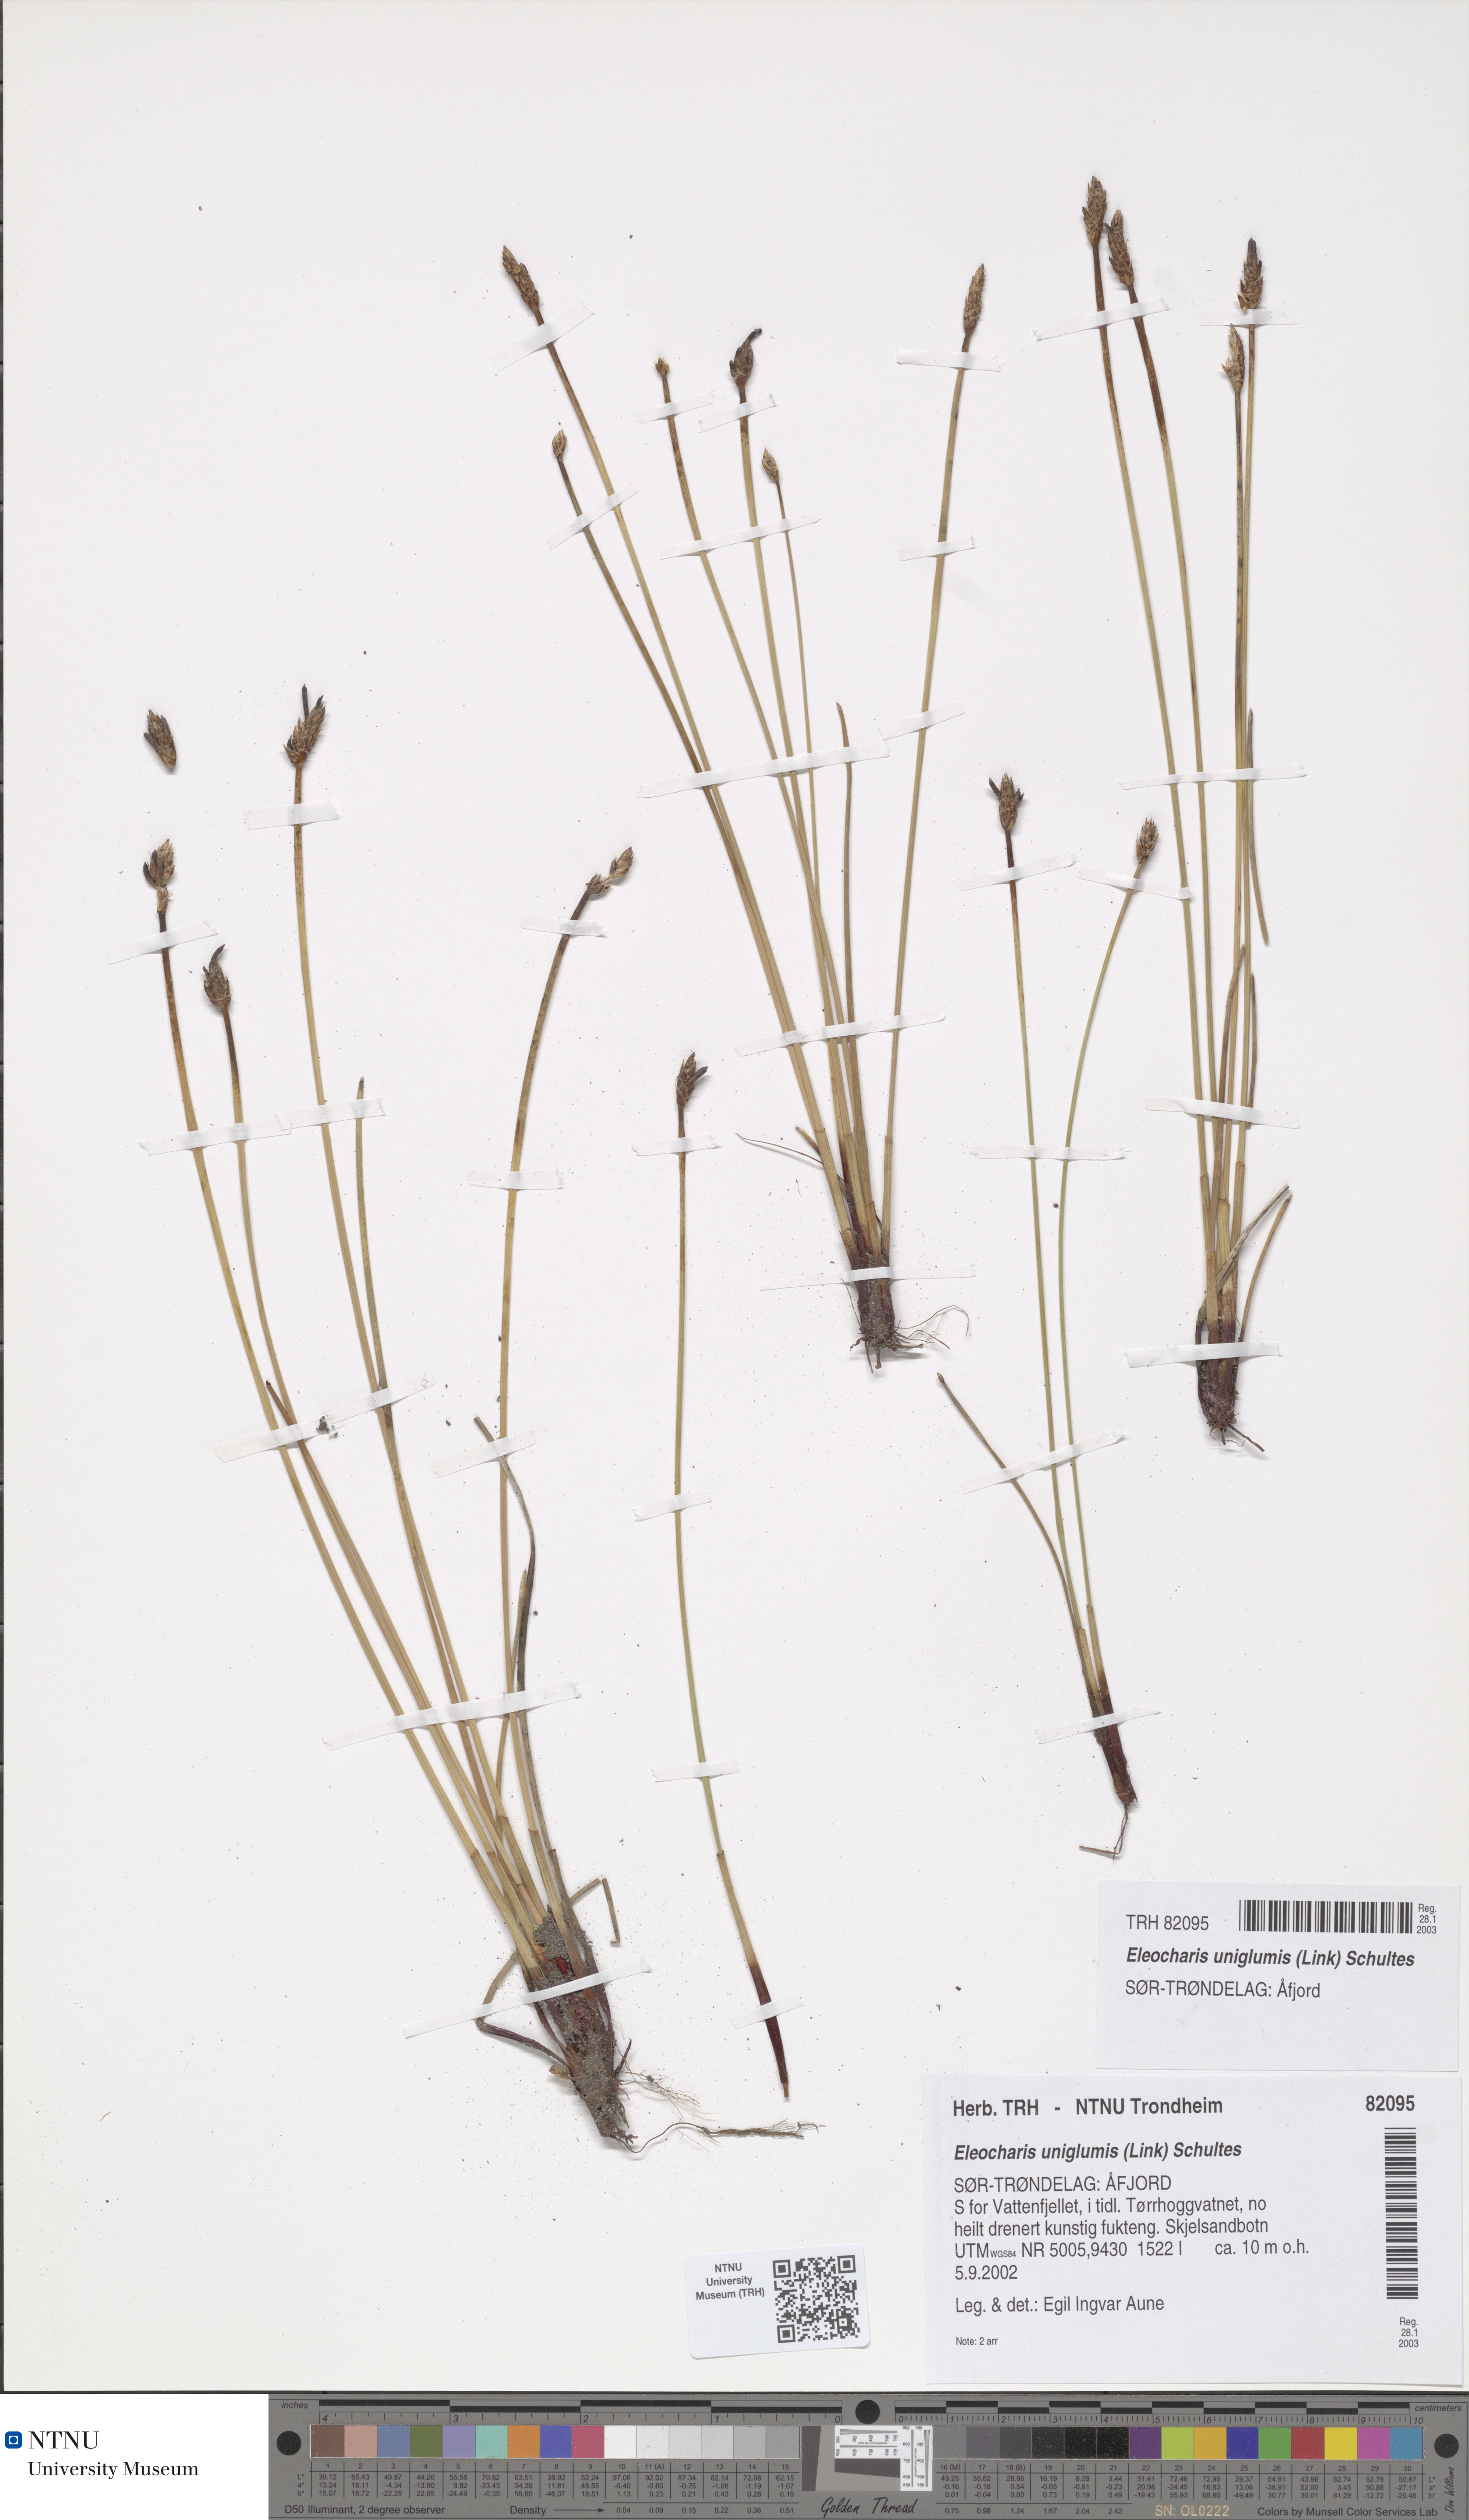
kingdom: Plantae
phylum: Tracheophyta
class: Liliopsida
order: Poales
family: Cyperaceae
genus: Eleocharis
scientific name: Eleocharis uniglumis
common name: Slender spike-rush
